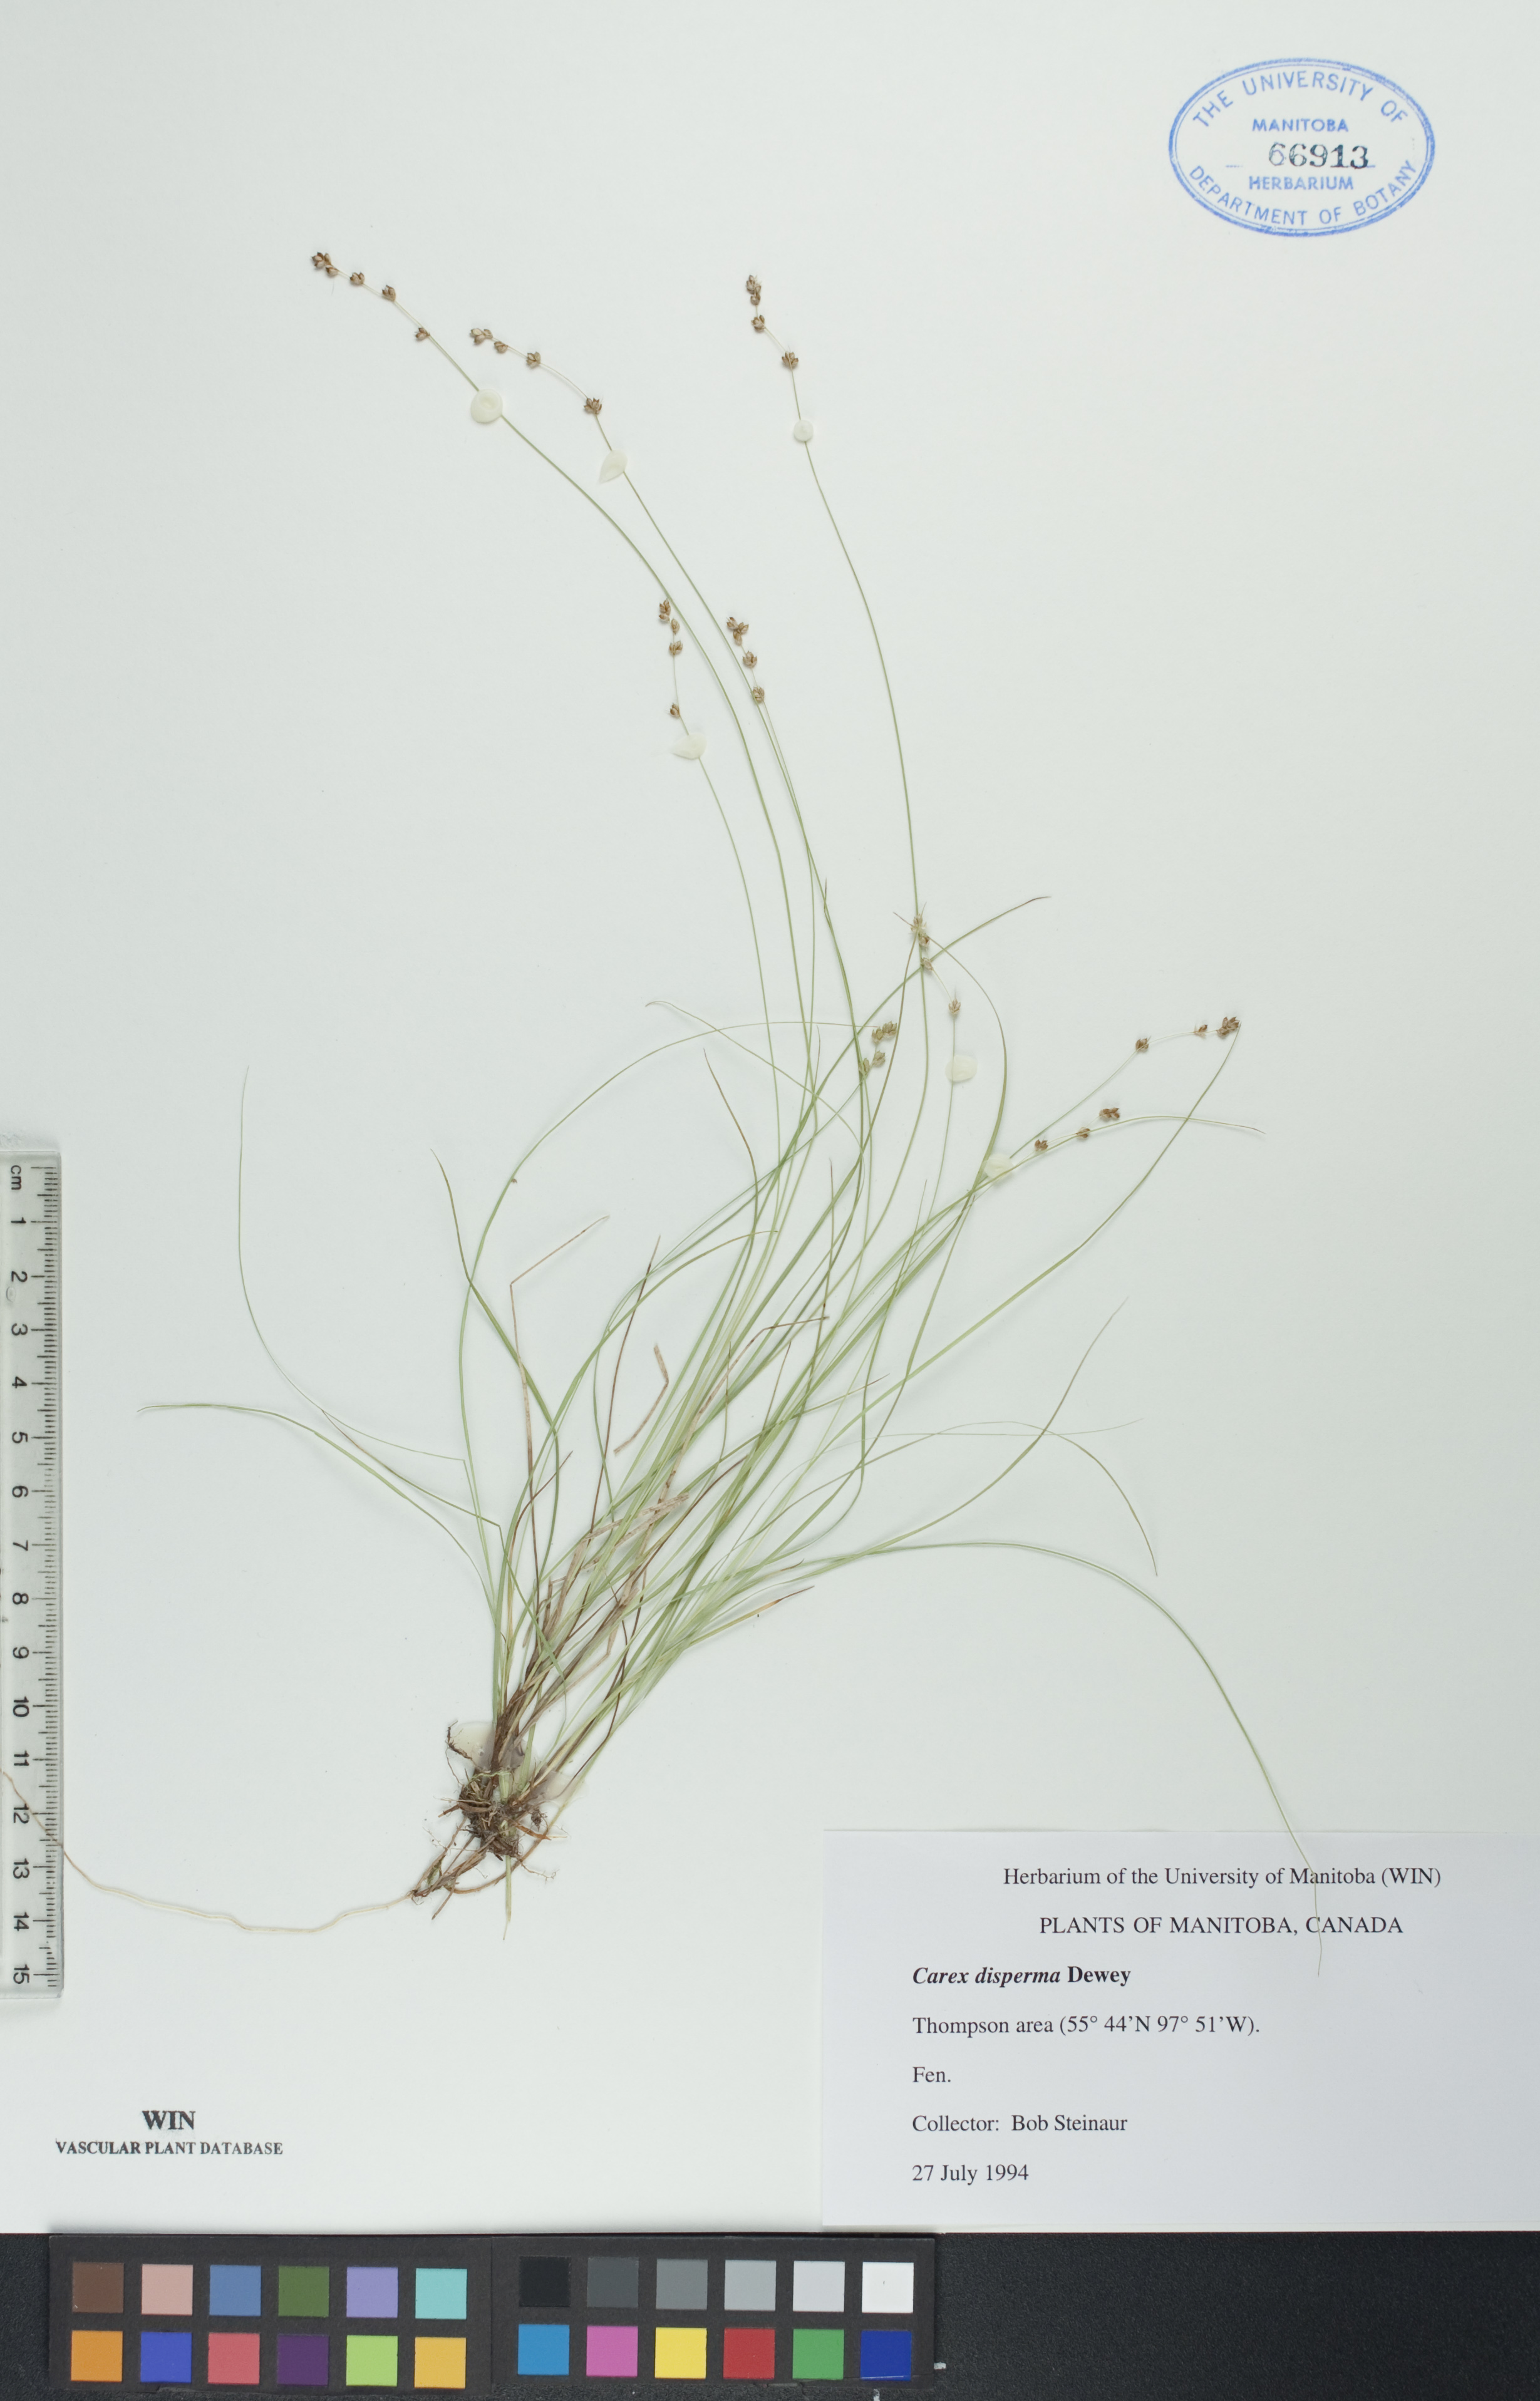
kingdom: Plantae
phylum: Tracheophyta
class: Liliopsida
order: Poales
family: Cyperaceae
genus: Carex
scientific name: Carex disperma
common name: Short-leaved sedge
